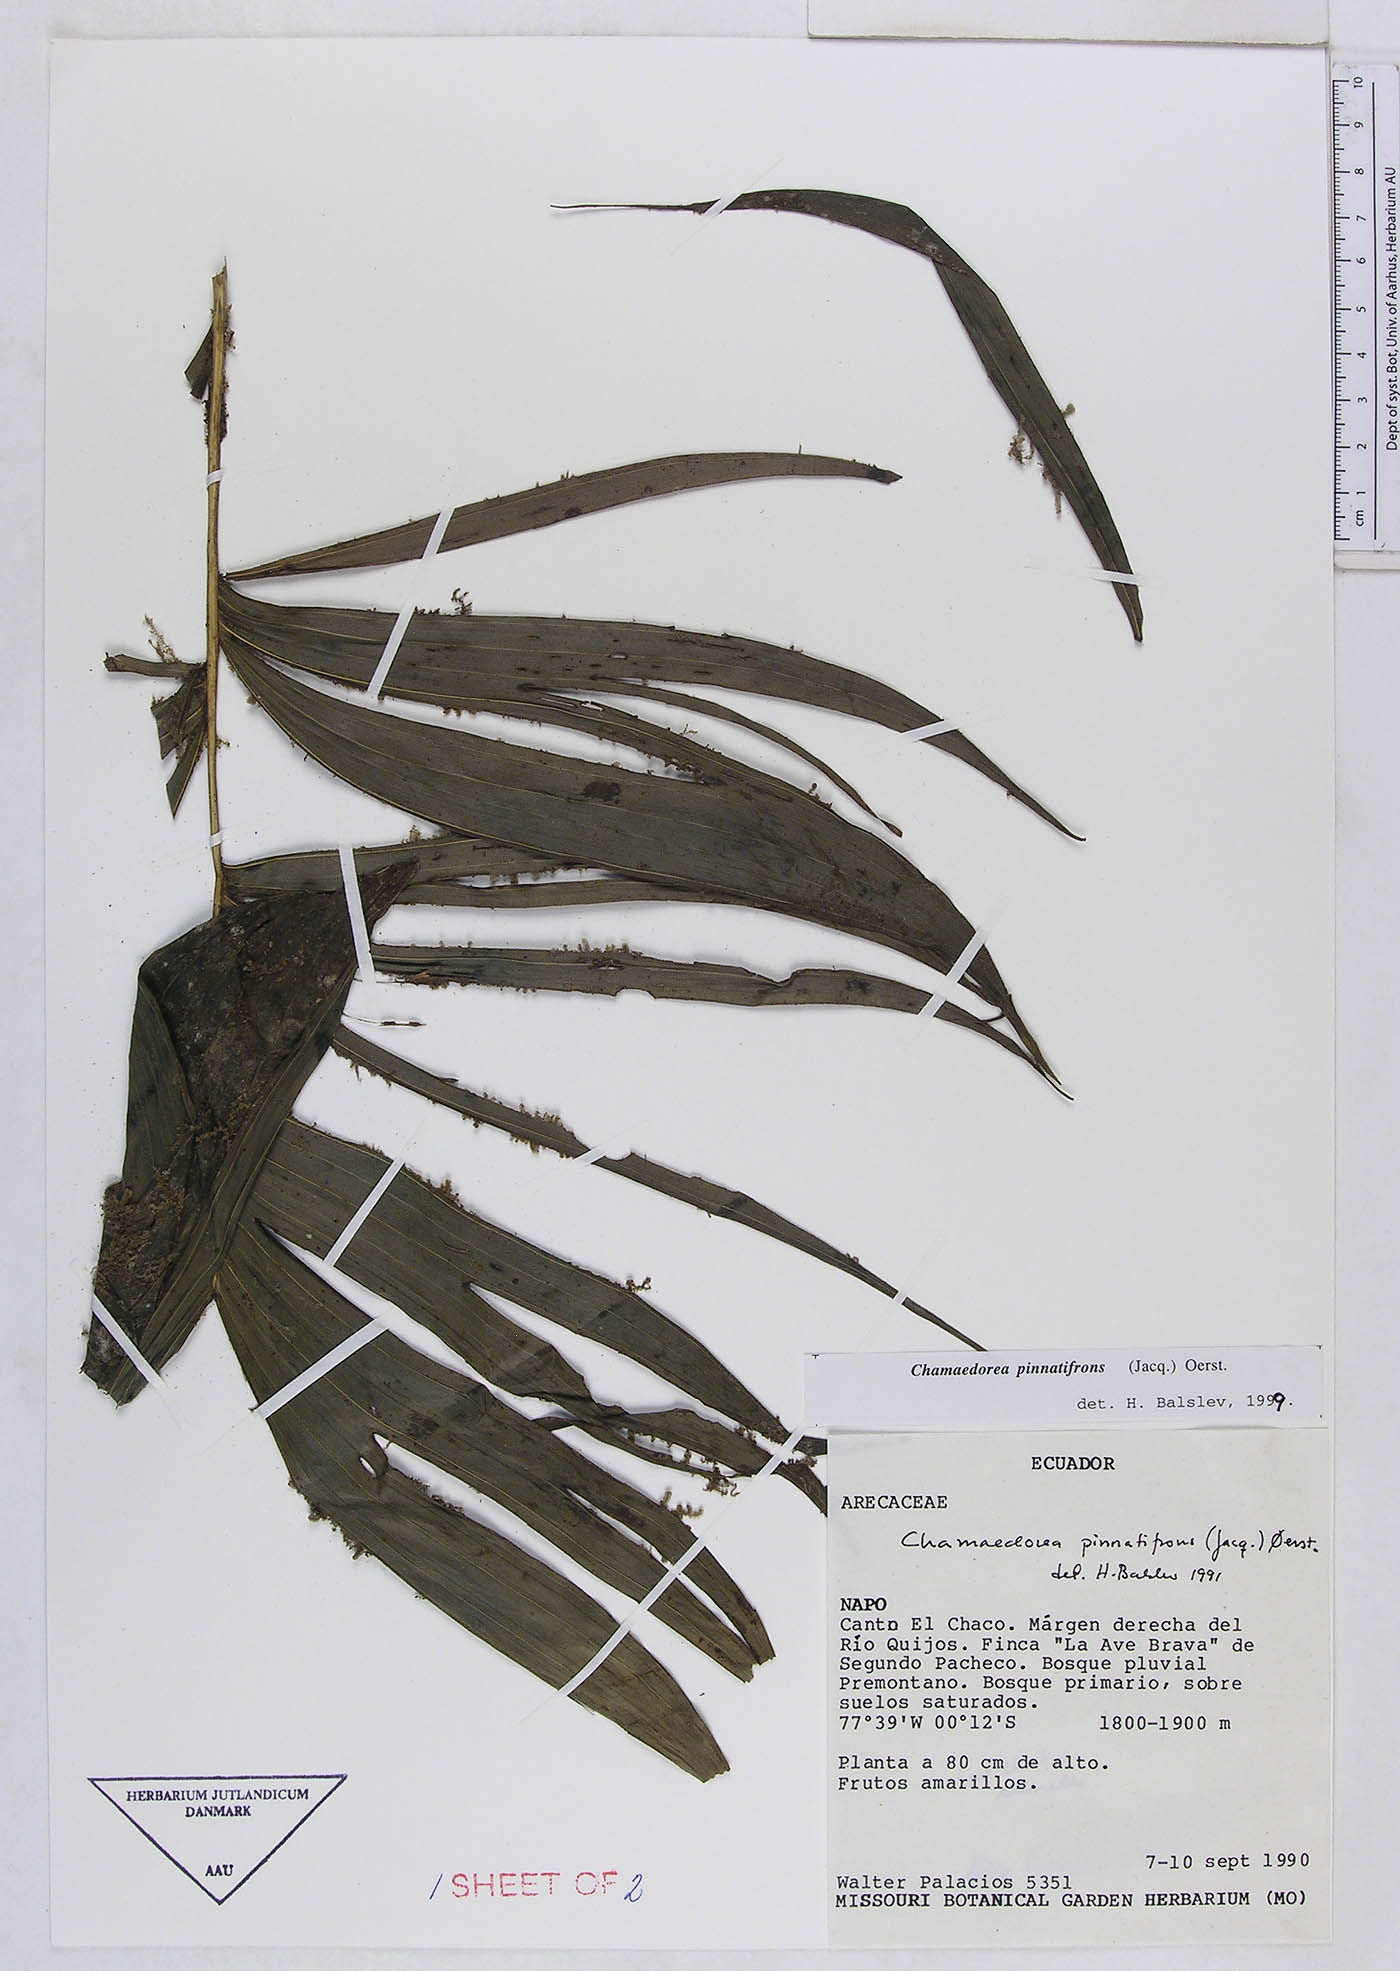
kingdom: Plantae
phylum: Tracheophyta
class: Liliopsida
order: Arecales
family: Arecaceae
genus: Chamaedorea
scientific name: Chamaedorea pinnatifrons
